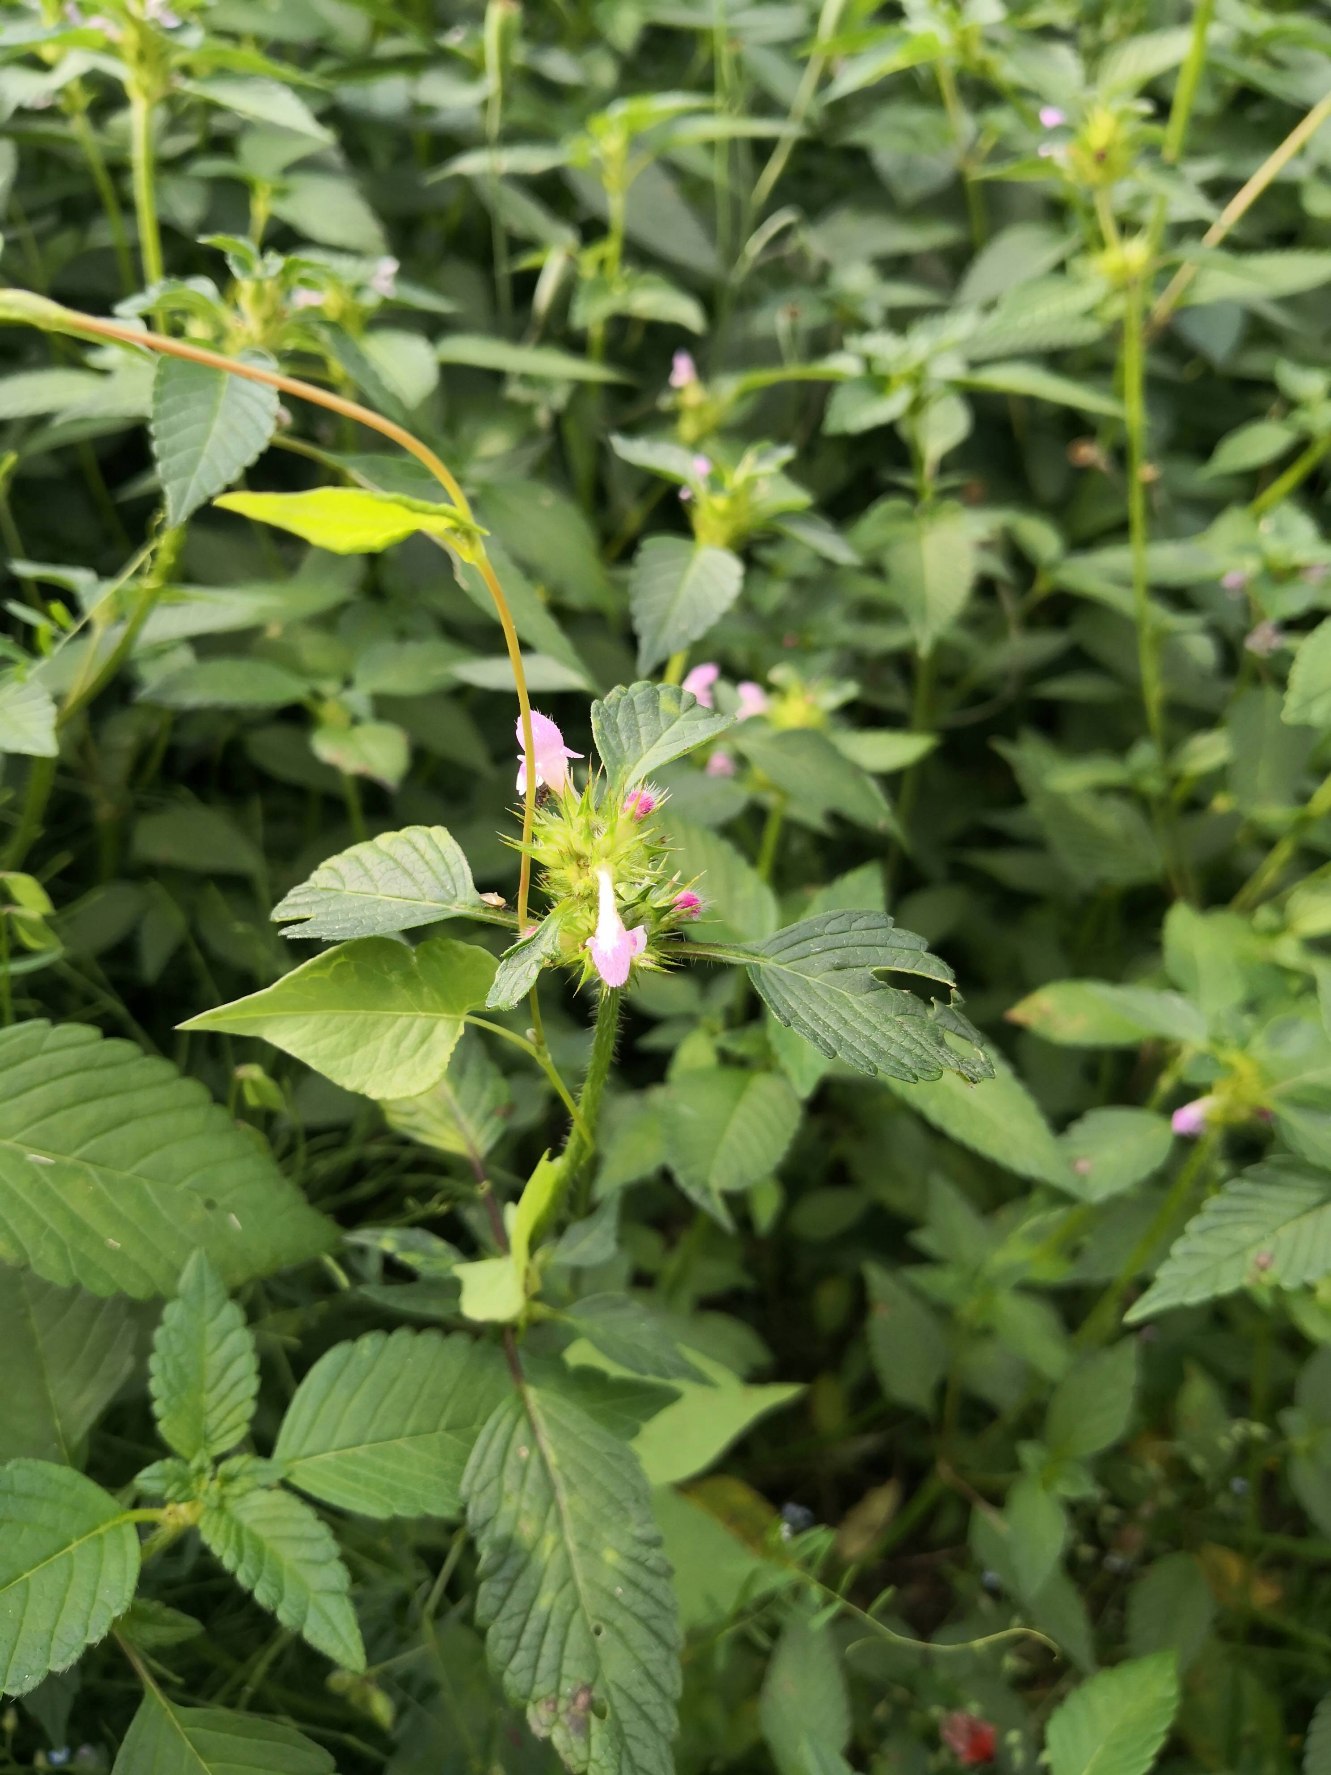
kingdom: Plantae
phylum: Tracheophyta
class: Magnoliopsida
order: Lamiales
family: Lamiaceae
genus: Galeopsis
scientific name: Galeopsis
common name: Hanekroslægten
